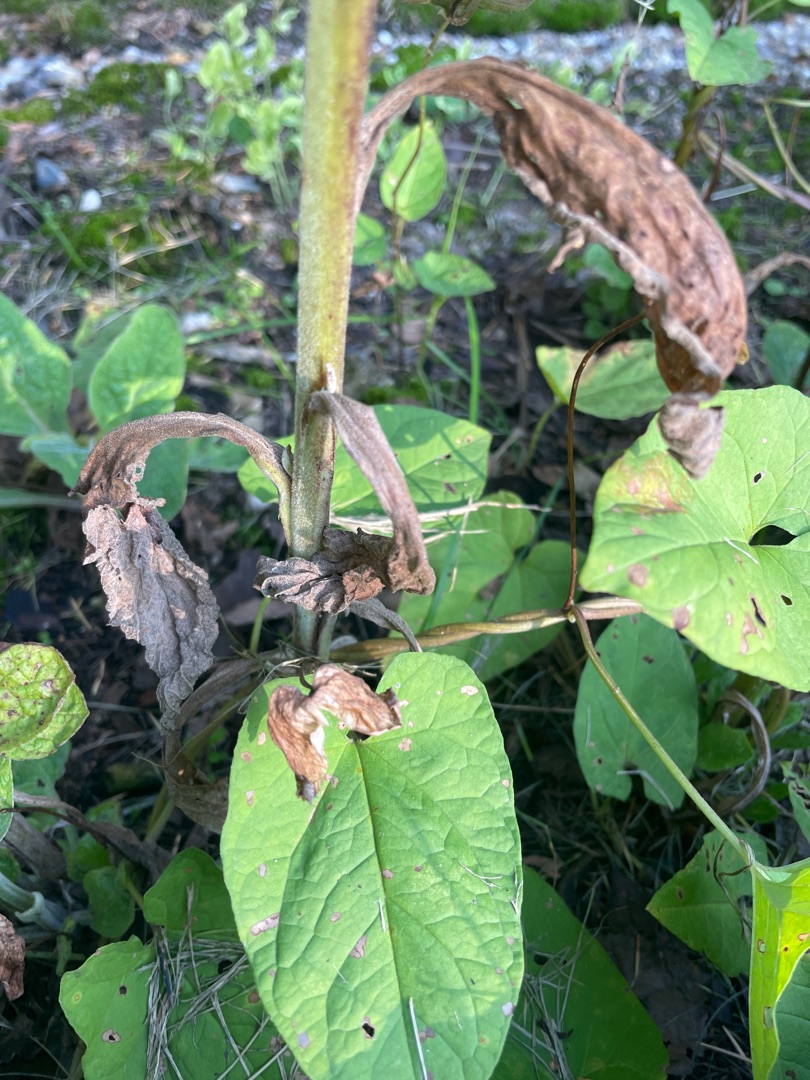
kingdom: Plantae
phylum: Tracheophyta
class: Magnoliopsida
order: Lamiales
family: Plantaginaceae
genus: Digitalis
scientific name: Digitalis purpurea
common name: Almindelig fingerbøl
